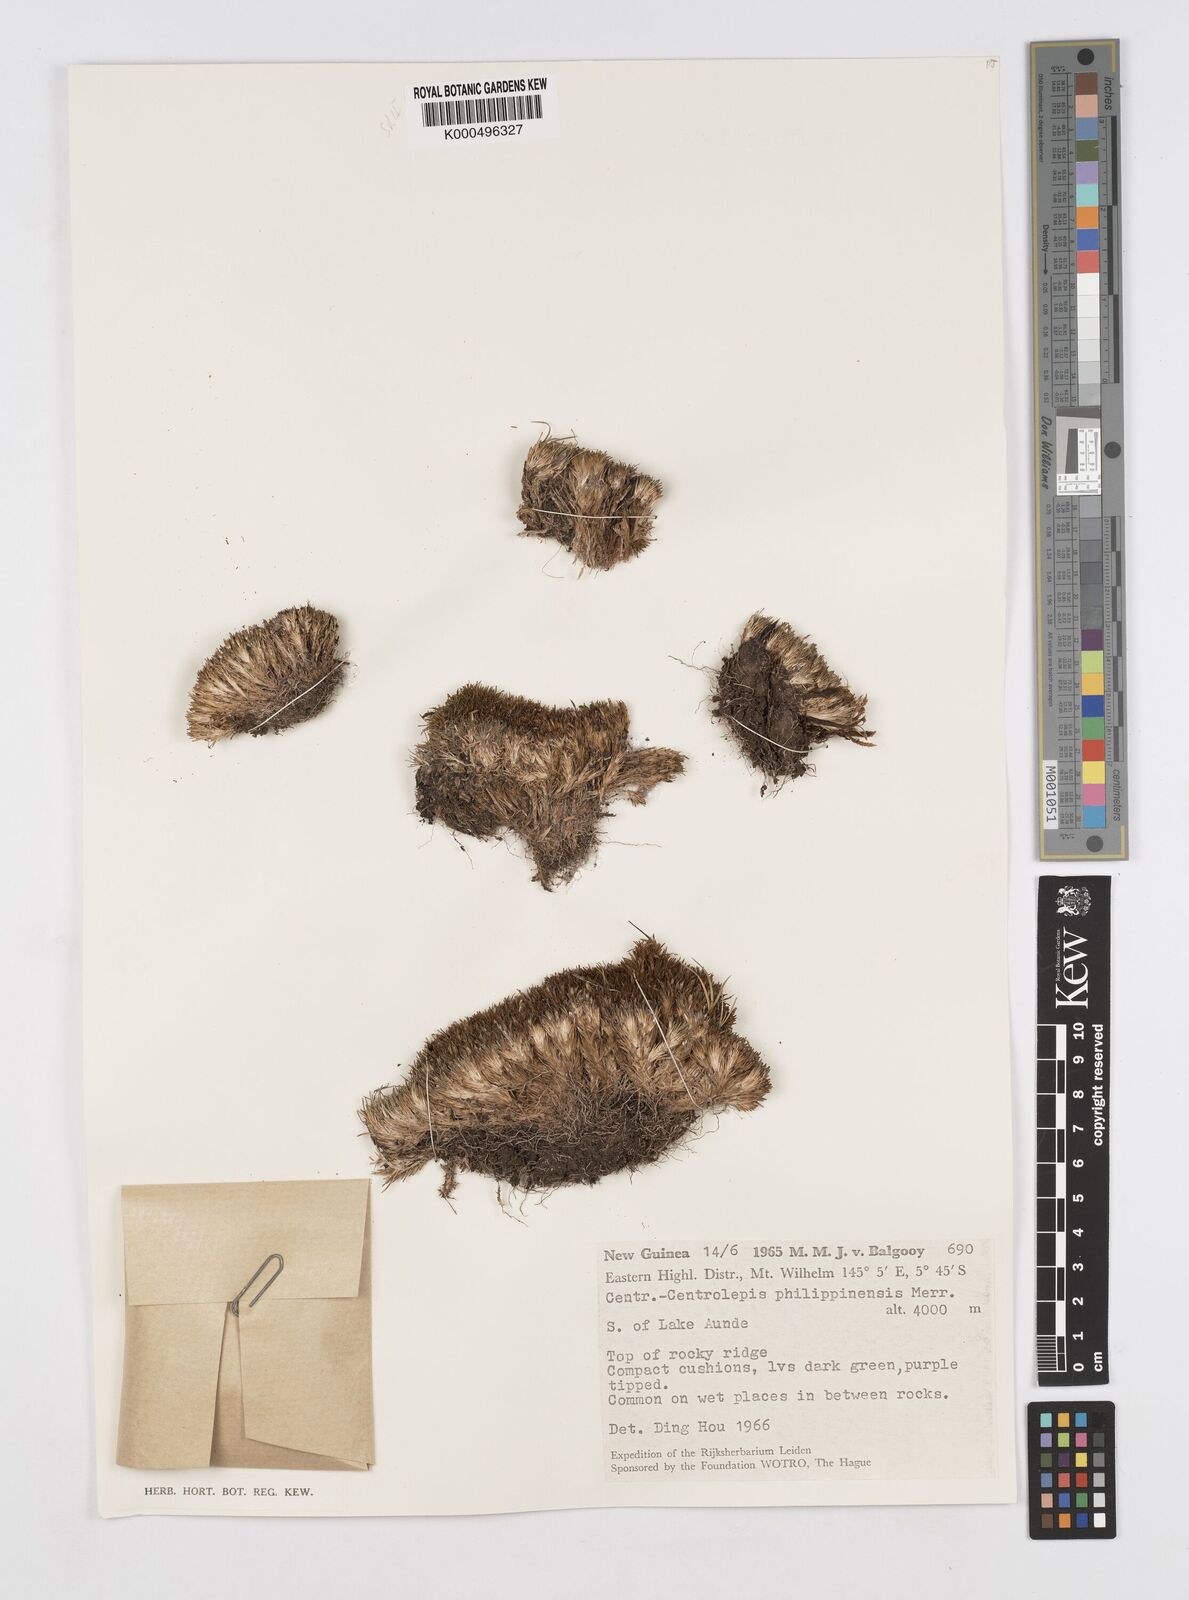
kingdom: Plantae
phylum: Tracheophyta
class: Liliopsida
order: Poales
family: Restionaceae
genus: Centrolepis
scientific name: Centrolepis philippinensis
